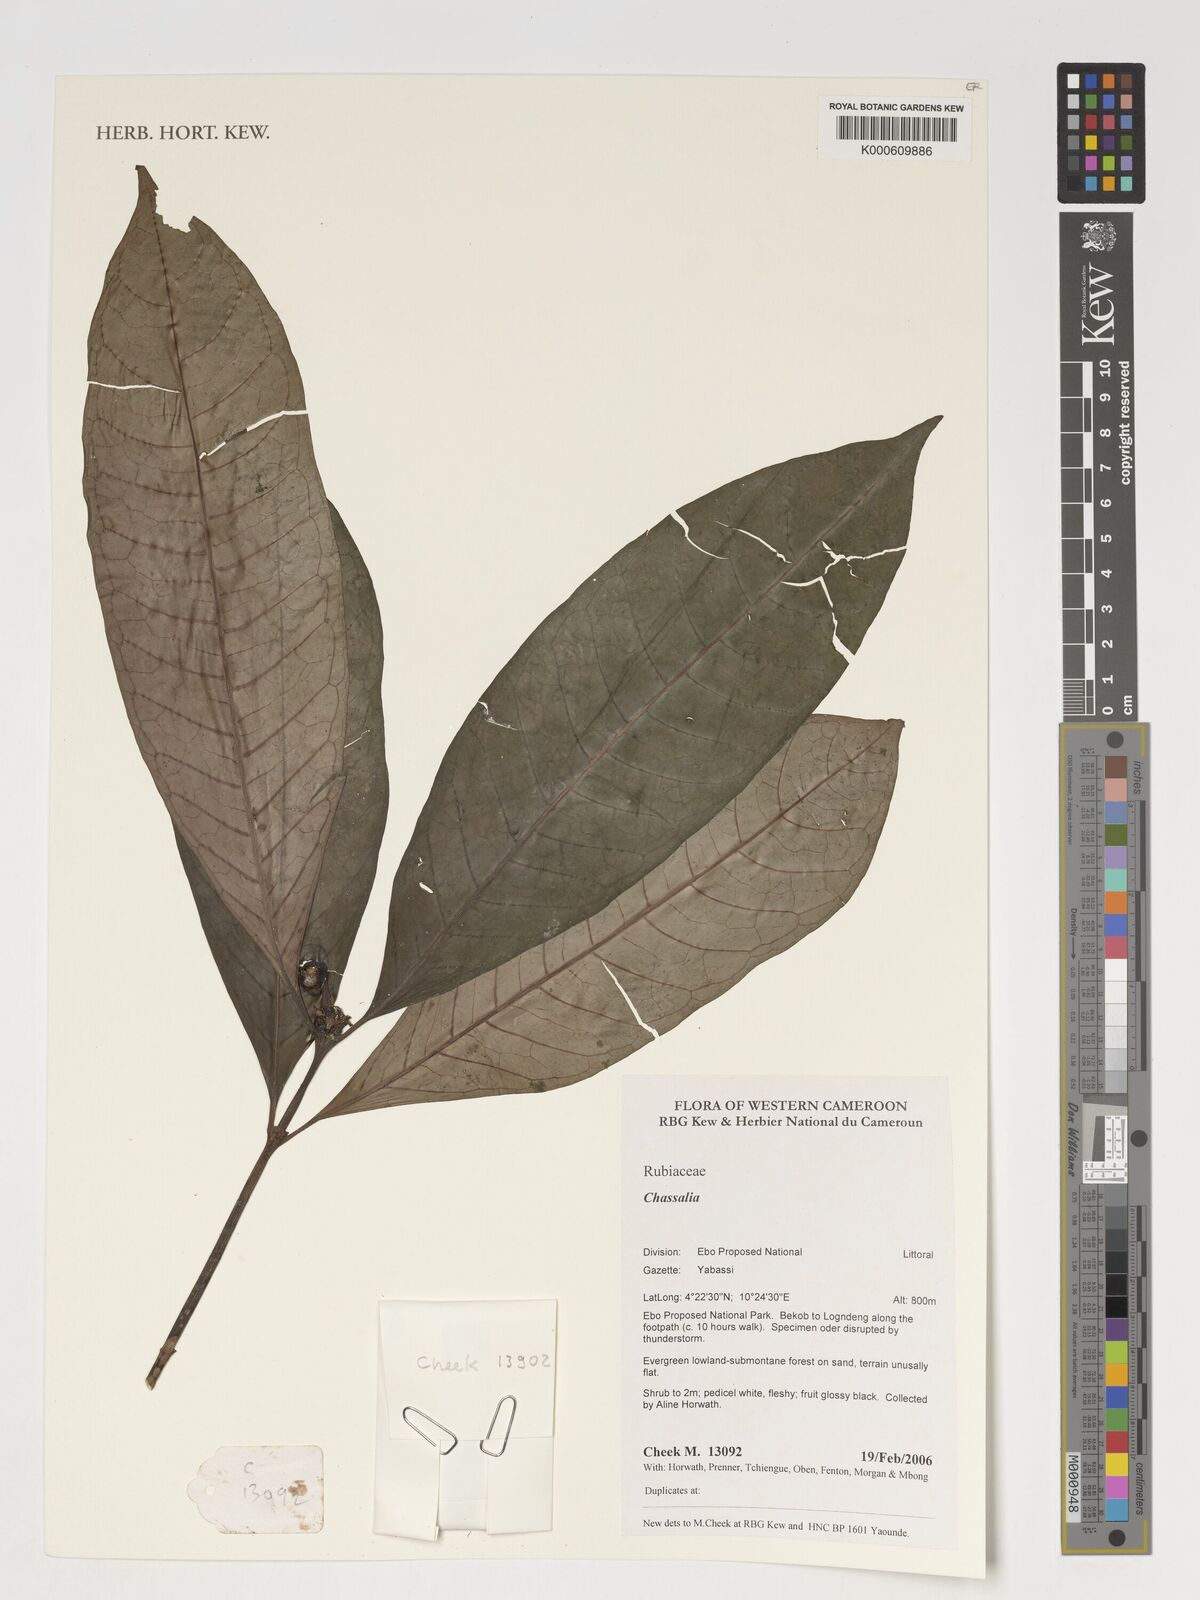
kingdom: Plantae
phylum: Tracheophyta
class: Magnoliopsida
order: Gentianales
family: Rubiaceae
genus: Chassalia
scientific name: Chassalia
